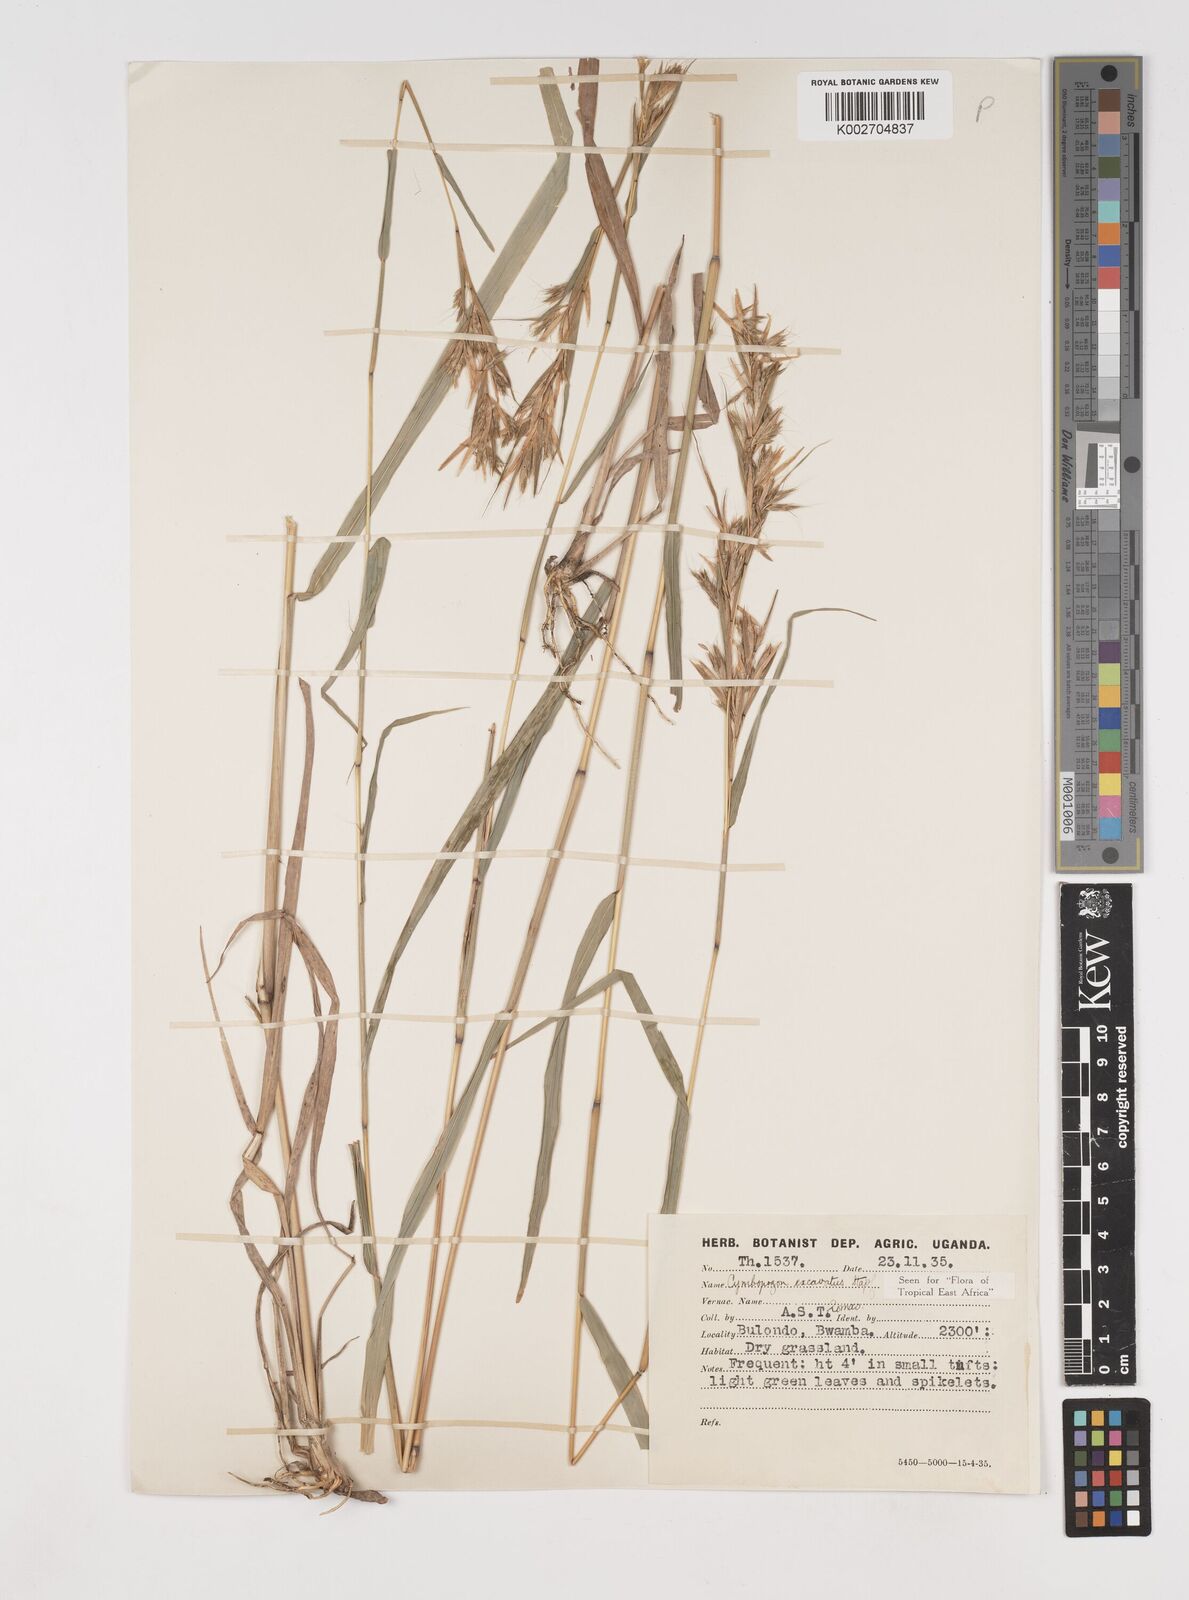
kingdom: Plantae
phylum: Tracheophyta
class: Liliopsida
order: Poales
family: Poaceae
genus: Cymbopogon
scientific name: Cymbopogon caesius
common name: Kachi grass
